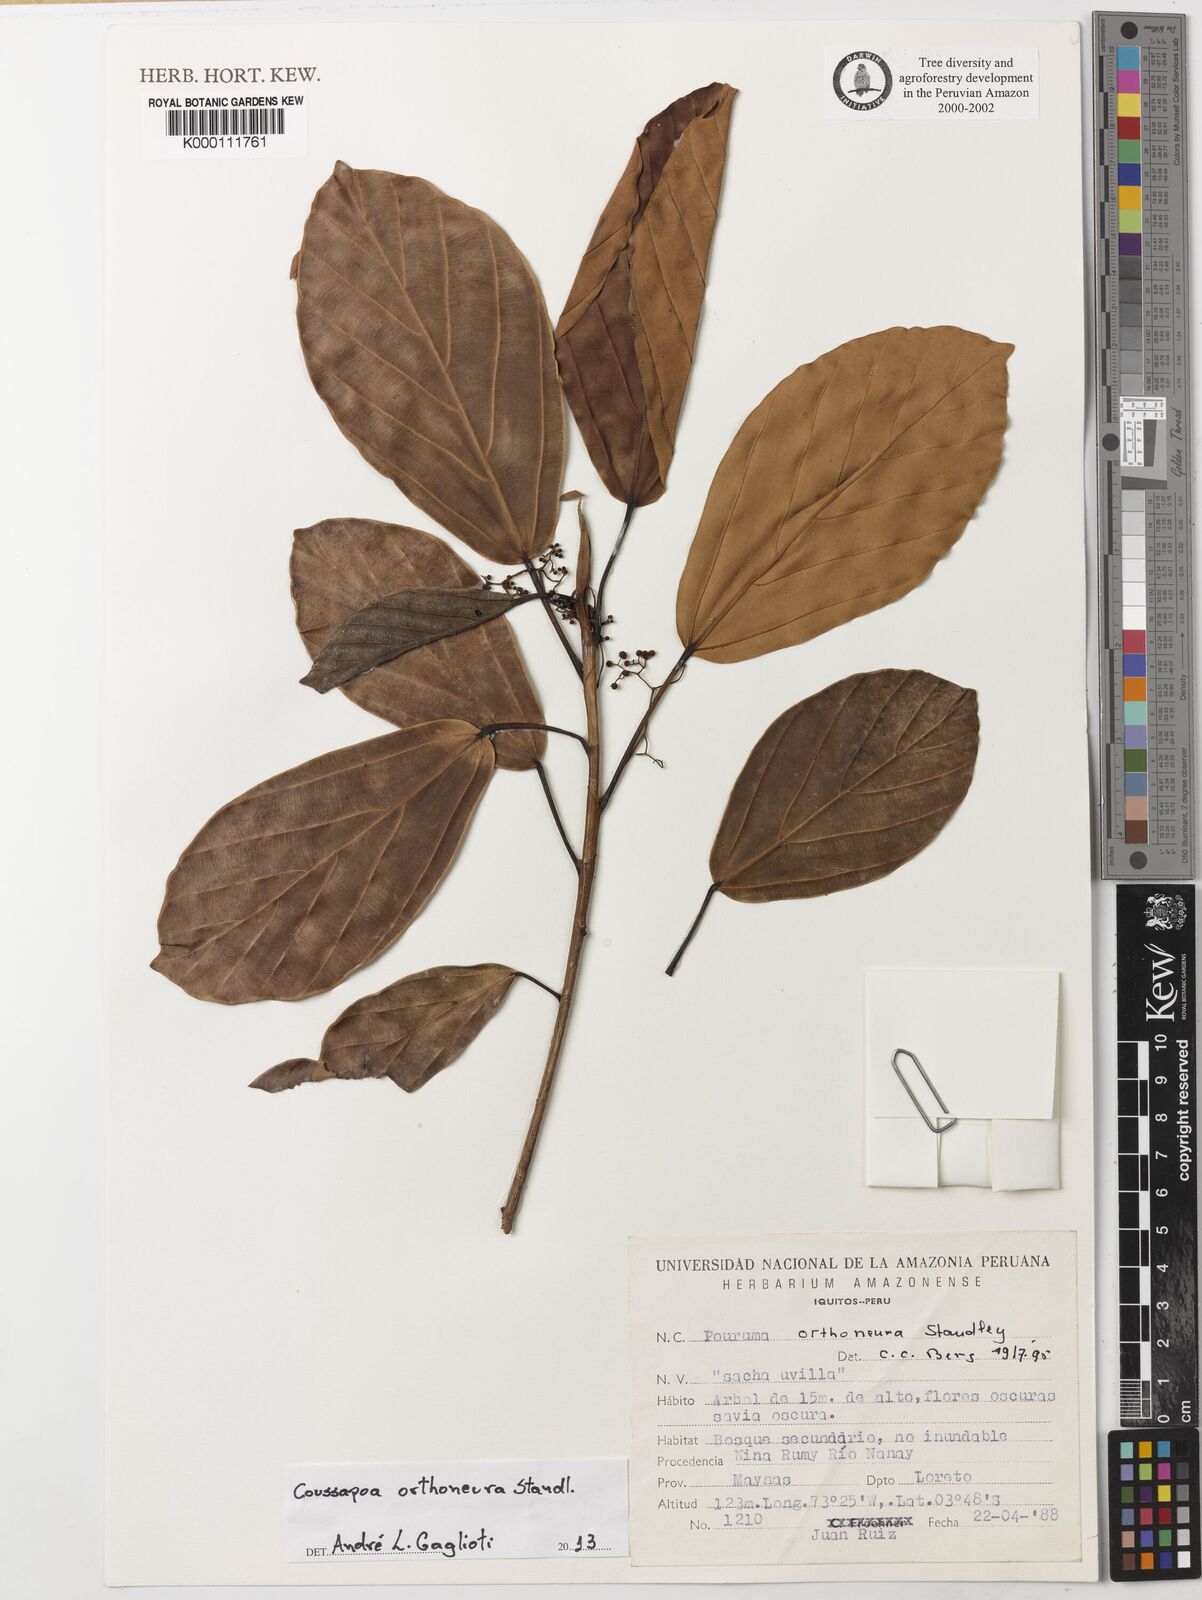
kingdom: Plantae
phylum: Tracheophyta
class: Magnoliopsida
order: Rosales
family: Urticaceae
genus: Coussapoa
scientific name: Coussapoa orthoneura
